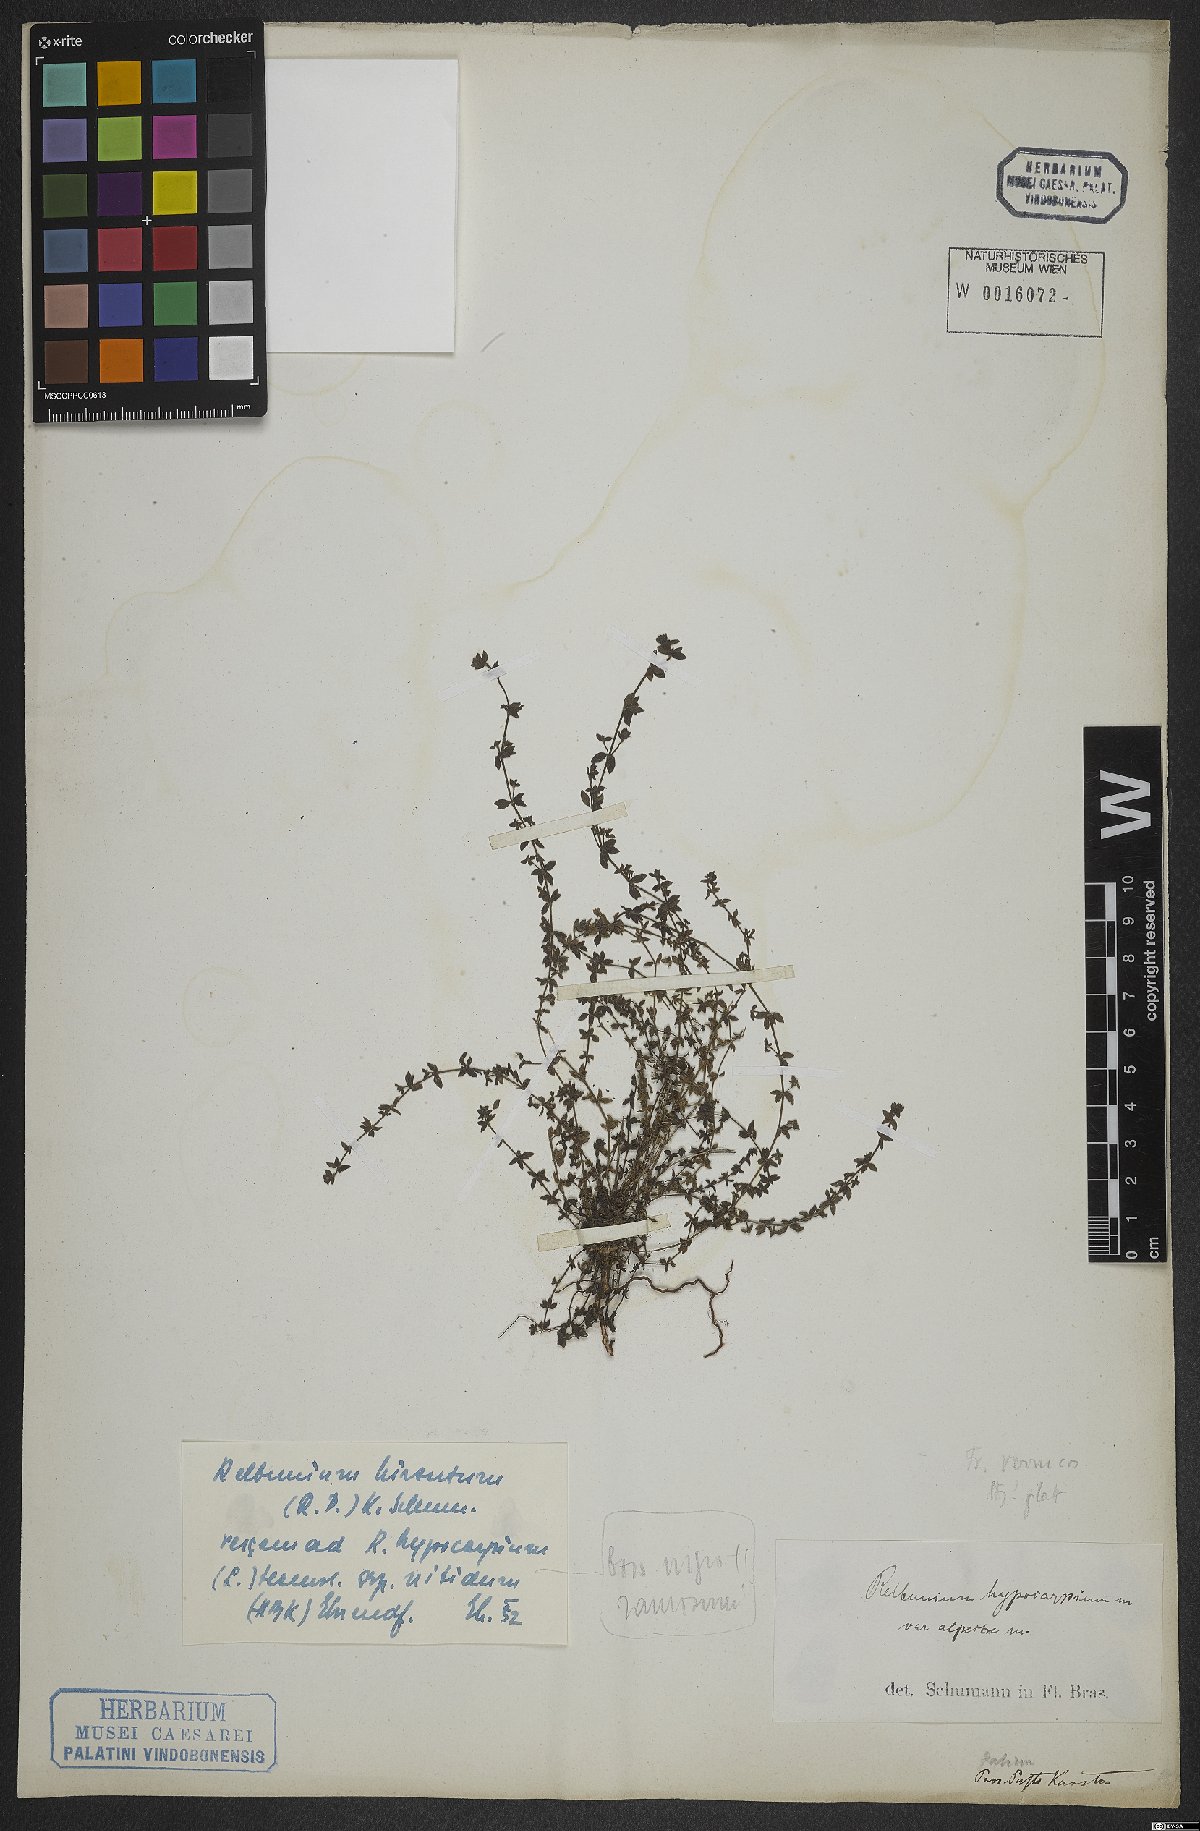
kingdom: Plantae
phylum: Tracheophyta
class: Magnoliopsida
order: Gentianales
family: Rubiaceae
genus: Galium
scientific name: Galium corymbosum
